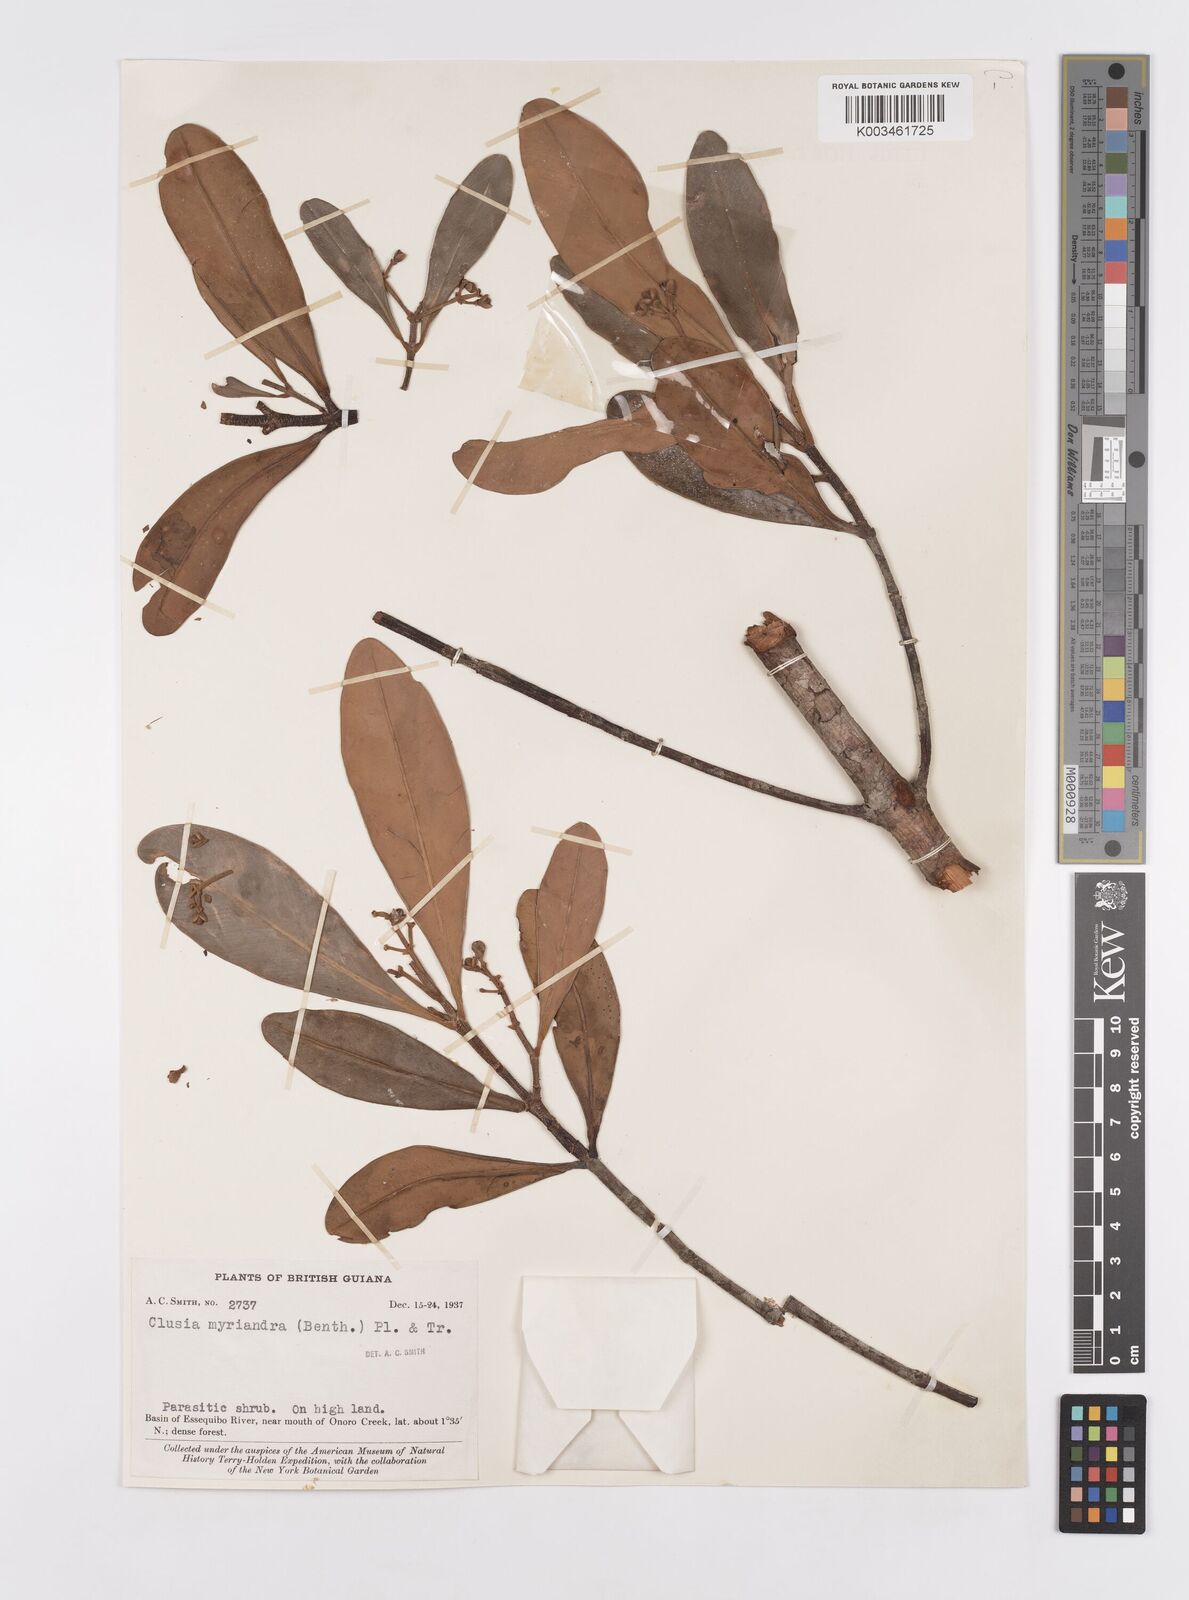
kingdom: Plantae
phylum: Tracheophyta
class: Magnoliopsida
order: Malpighiales
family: Clusiaceae
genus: Clusia
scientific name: Clusia myriandra
